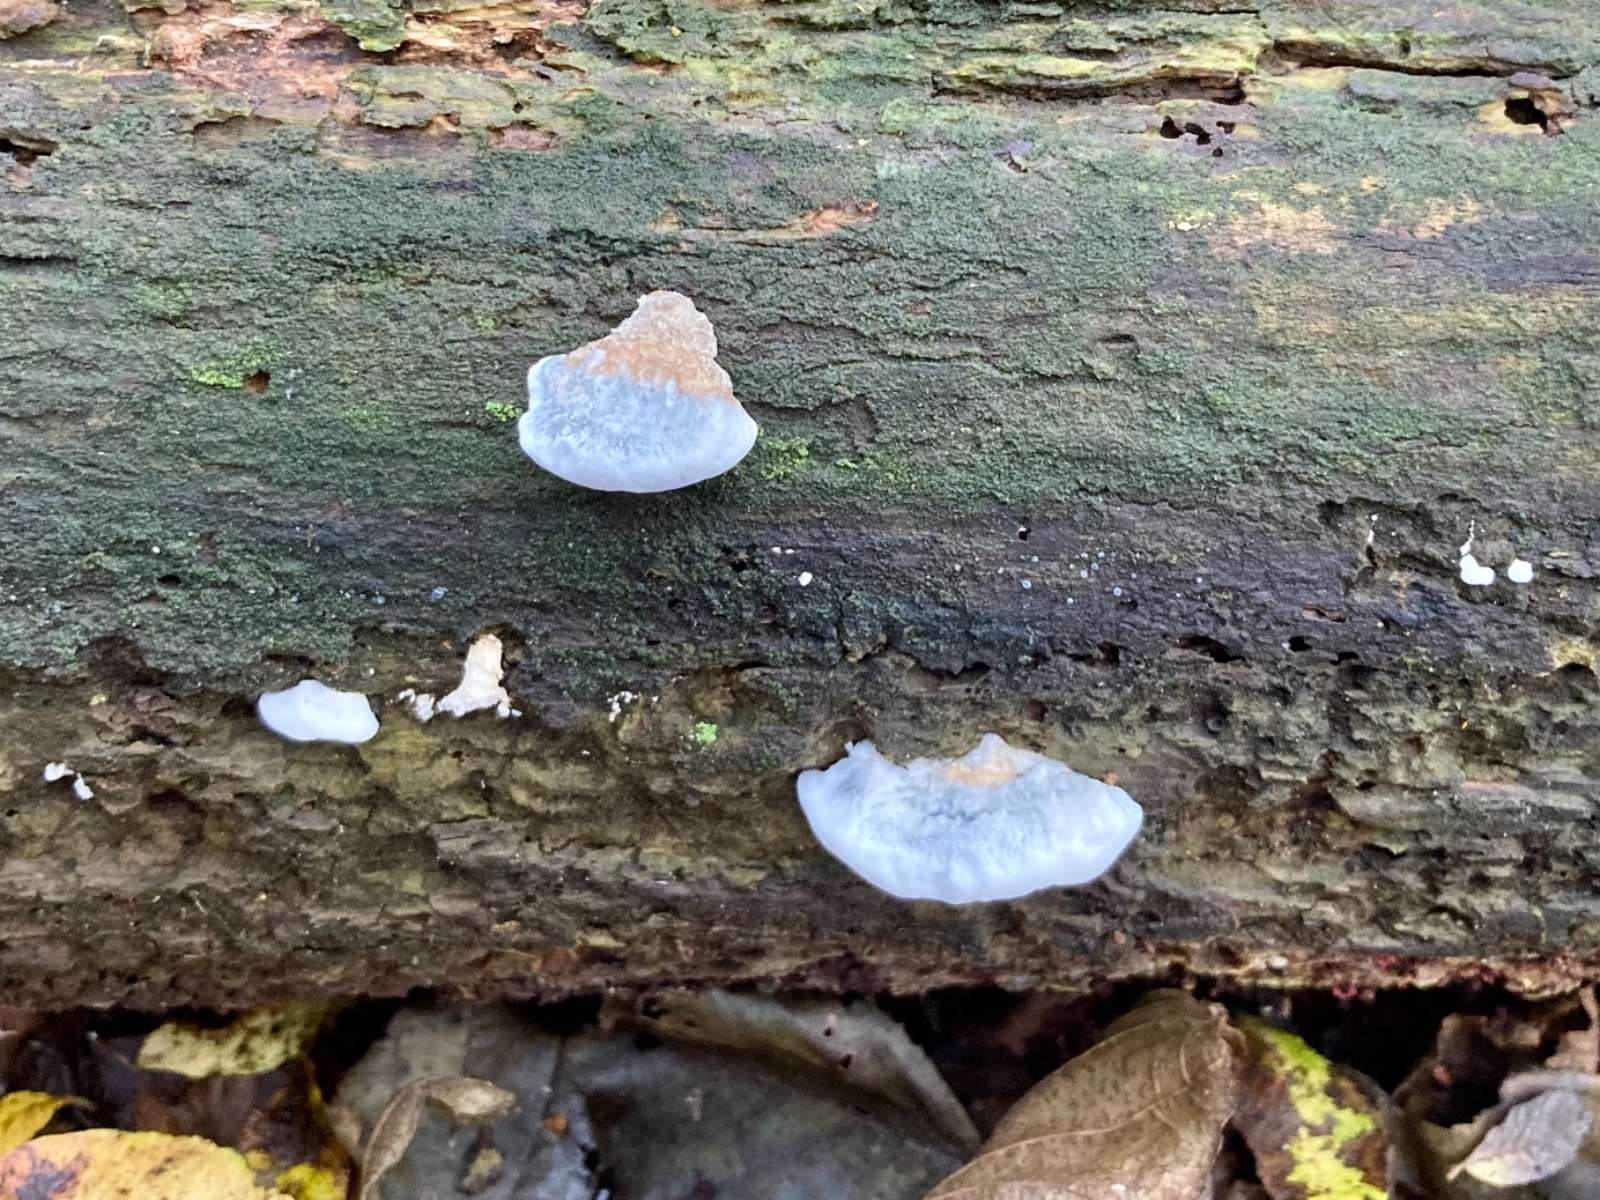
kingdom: Fungi
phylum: Basidiomycota
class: Agaricomycetes
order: Polyporales
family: Polyporaceae
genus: Cyanosporus
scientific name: Cyanosporus alni
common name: blegblå kødporesvamp
